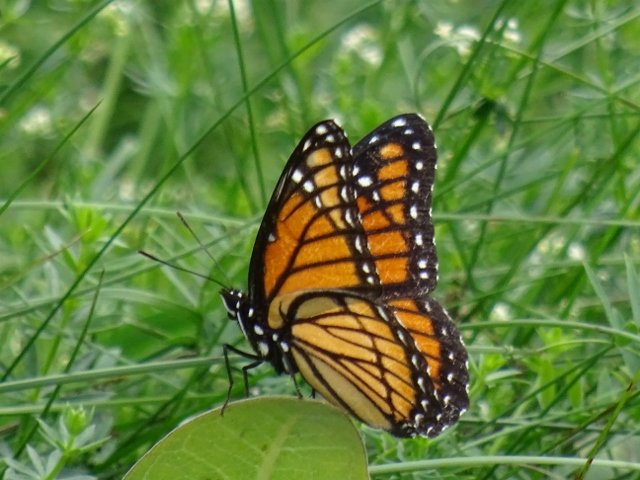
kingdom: Animalia
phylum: Arthropoda
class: Insecta
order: Lepidoptera
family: Nymphalidae
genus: Limenitis
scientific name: Limenitis archippus
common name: Viceroy
